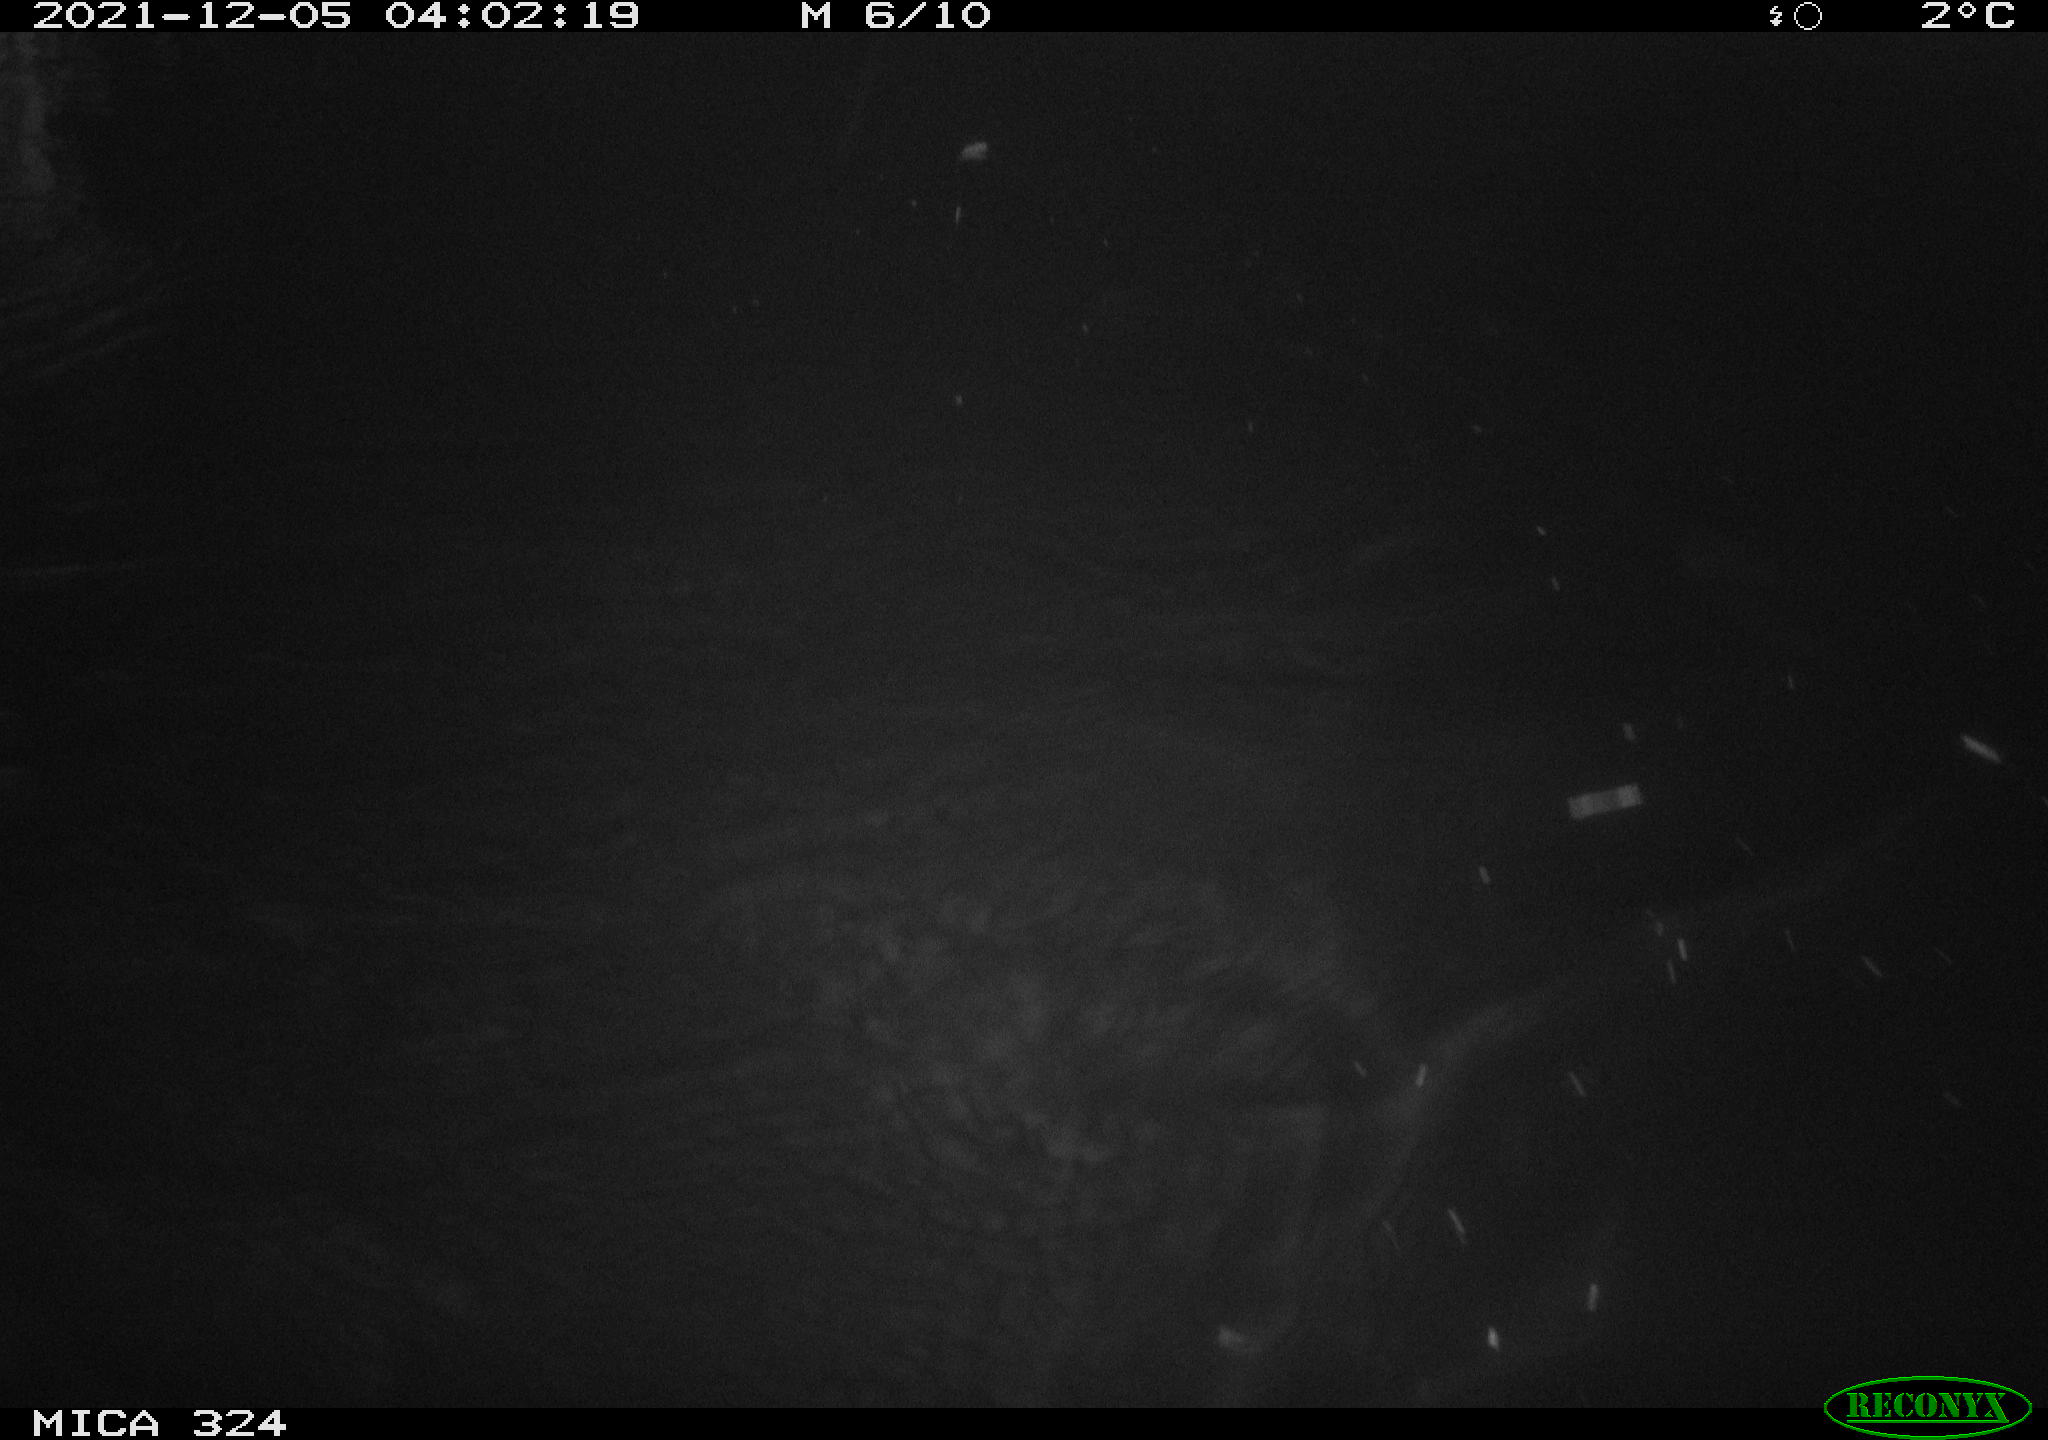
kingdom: Animalia
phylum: Chordata
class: Mammalia
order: Rodentia
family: Cricetidae
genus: Ondatra
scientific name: Ondatra zibethicus
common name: Muskrat
